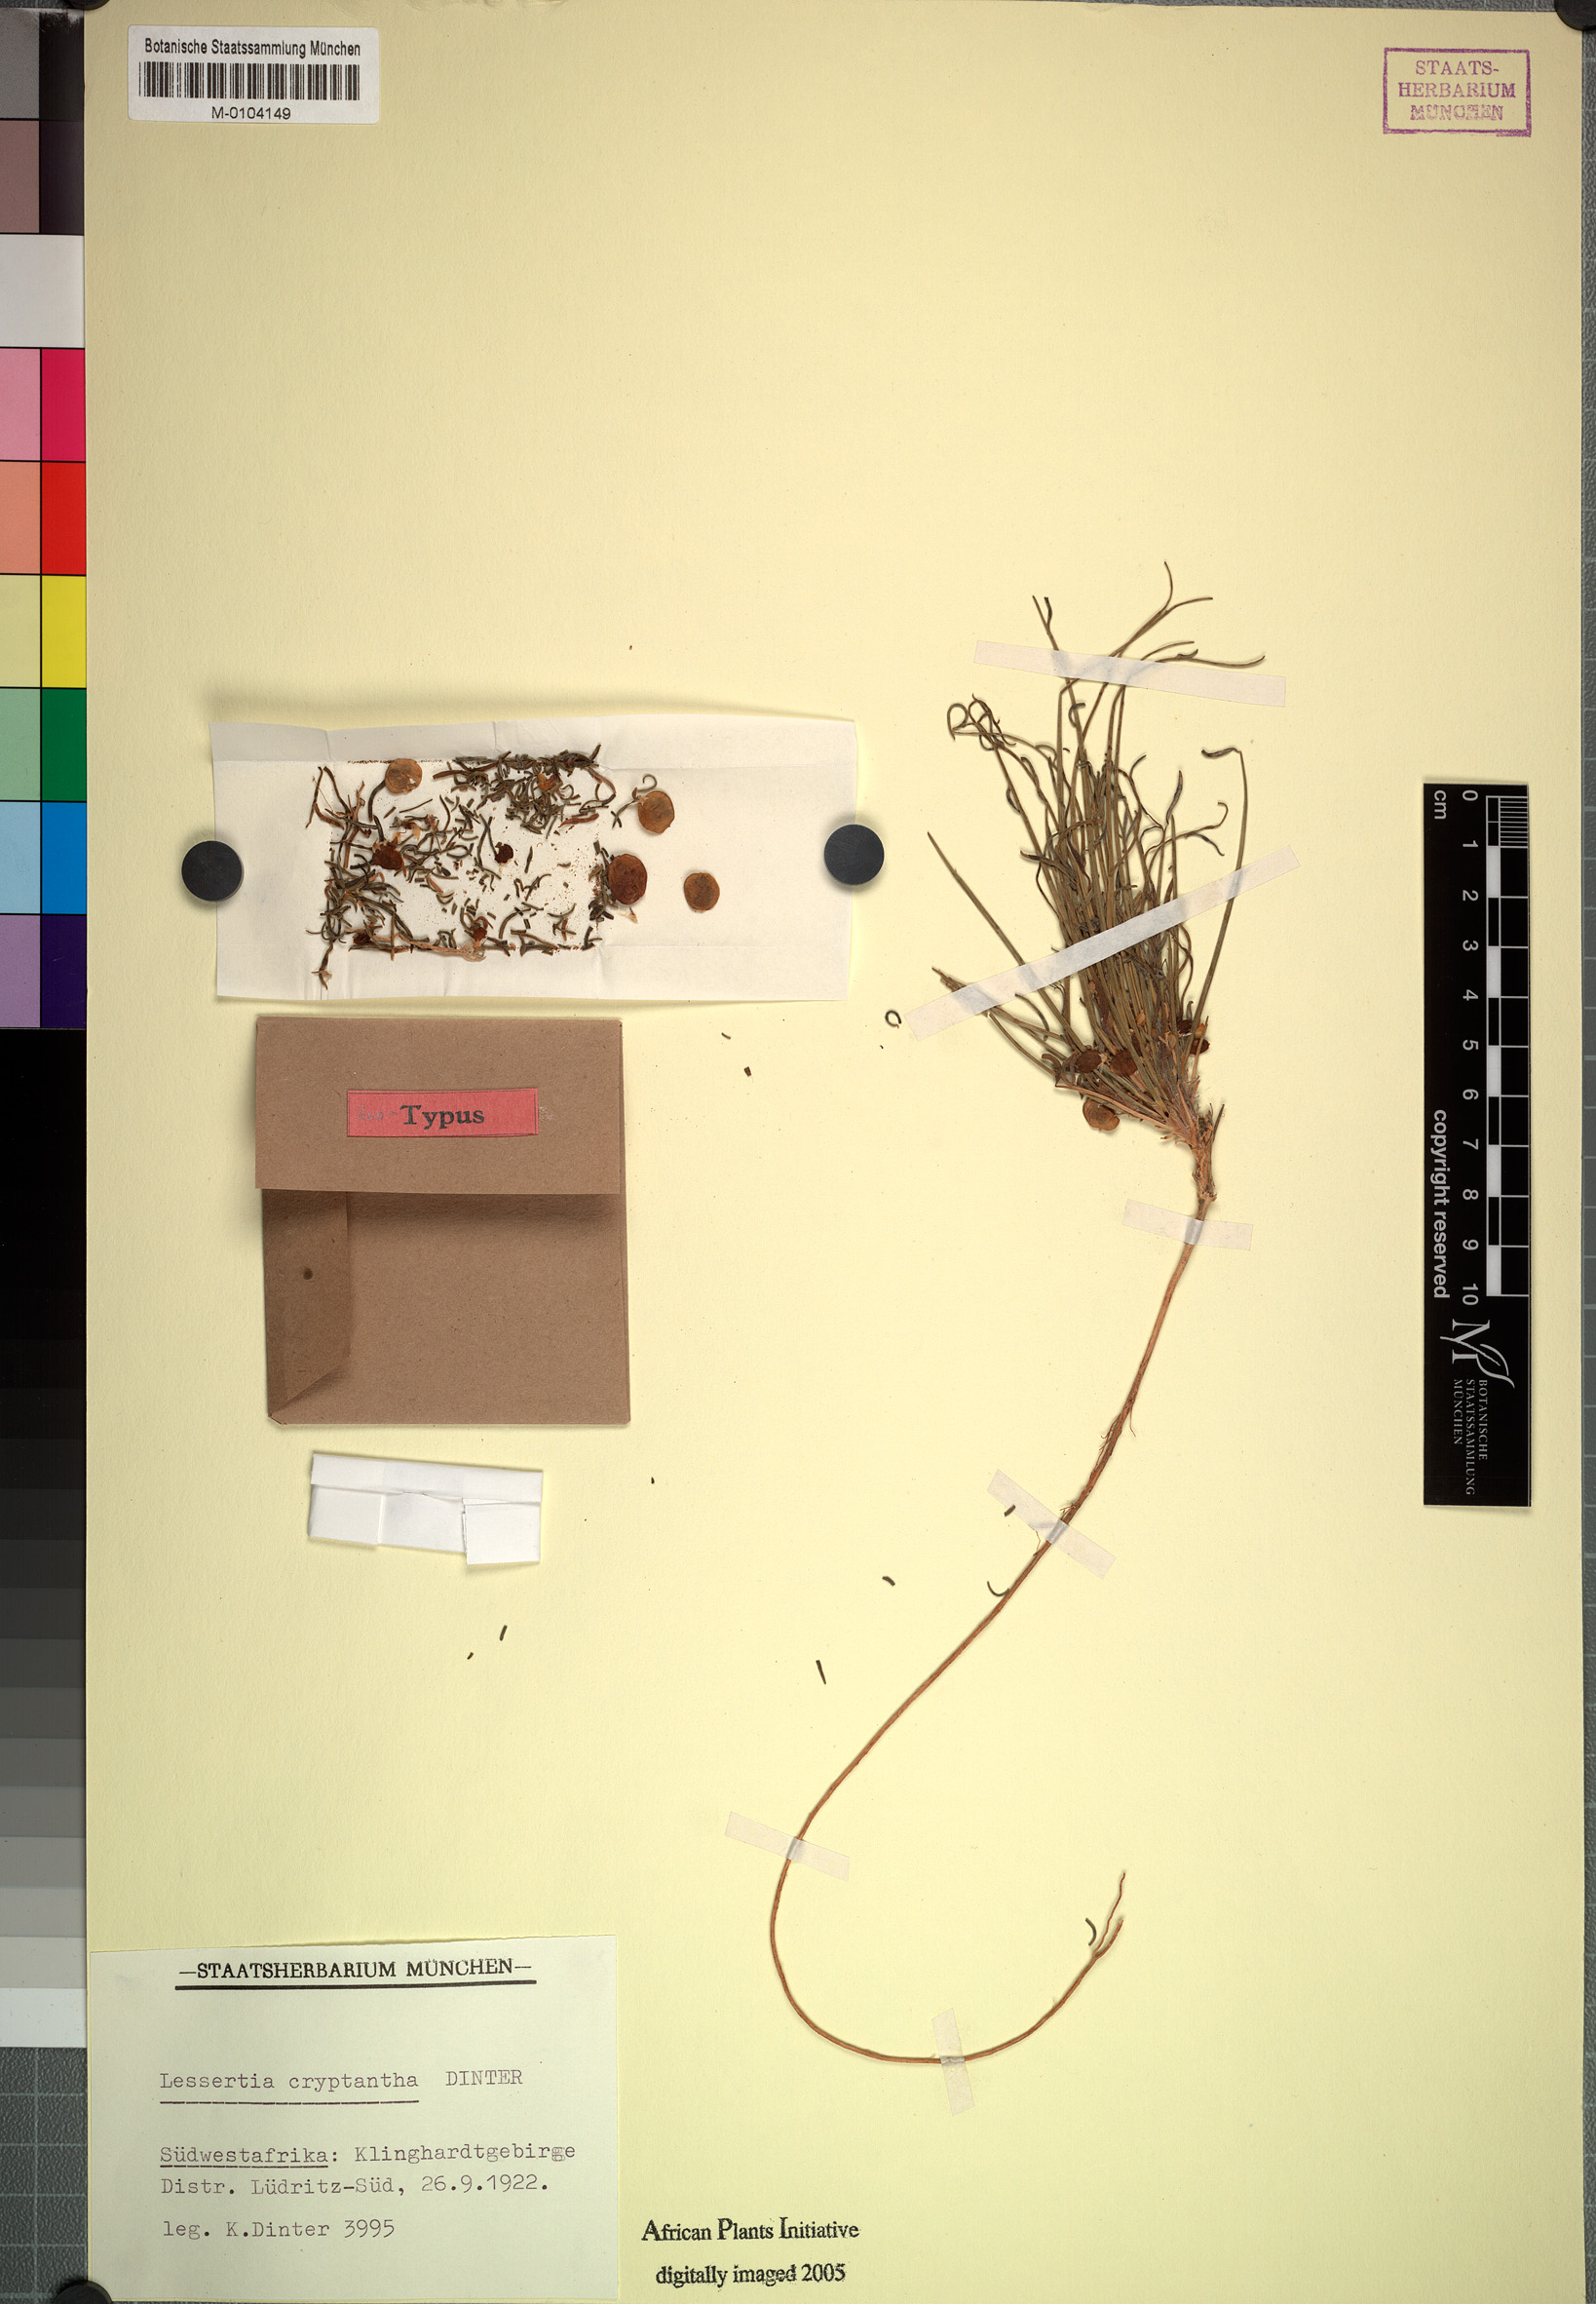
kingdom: Plantae
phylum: Tracheophyta
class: Magnoliopsida
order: Fabales
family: Fabaceae
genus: Lessertia
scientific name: Lessertia cryptantha
